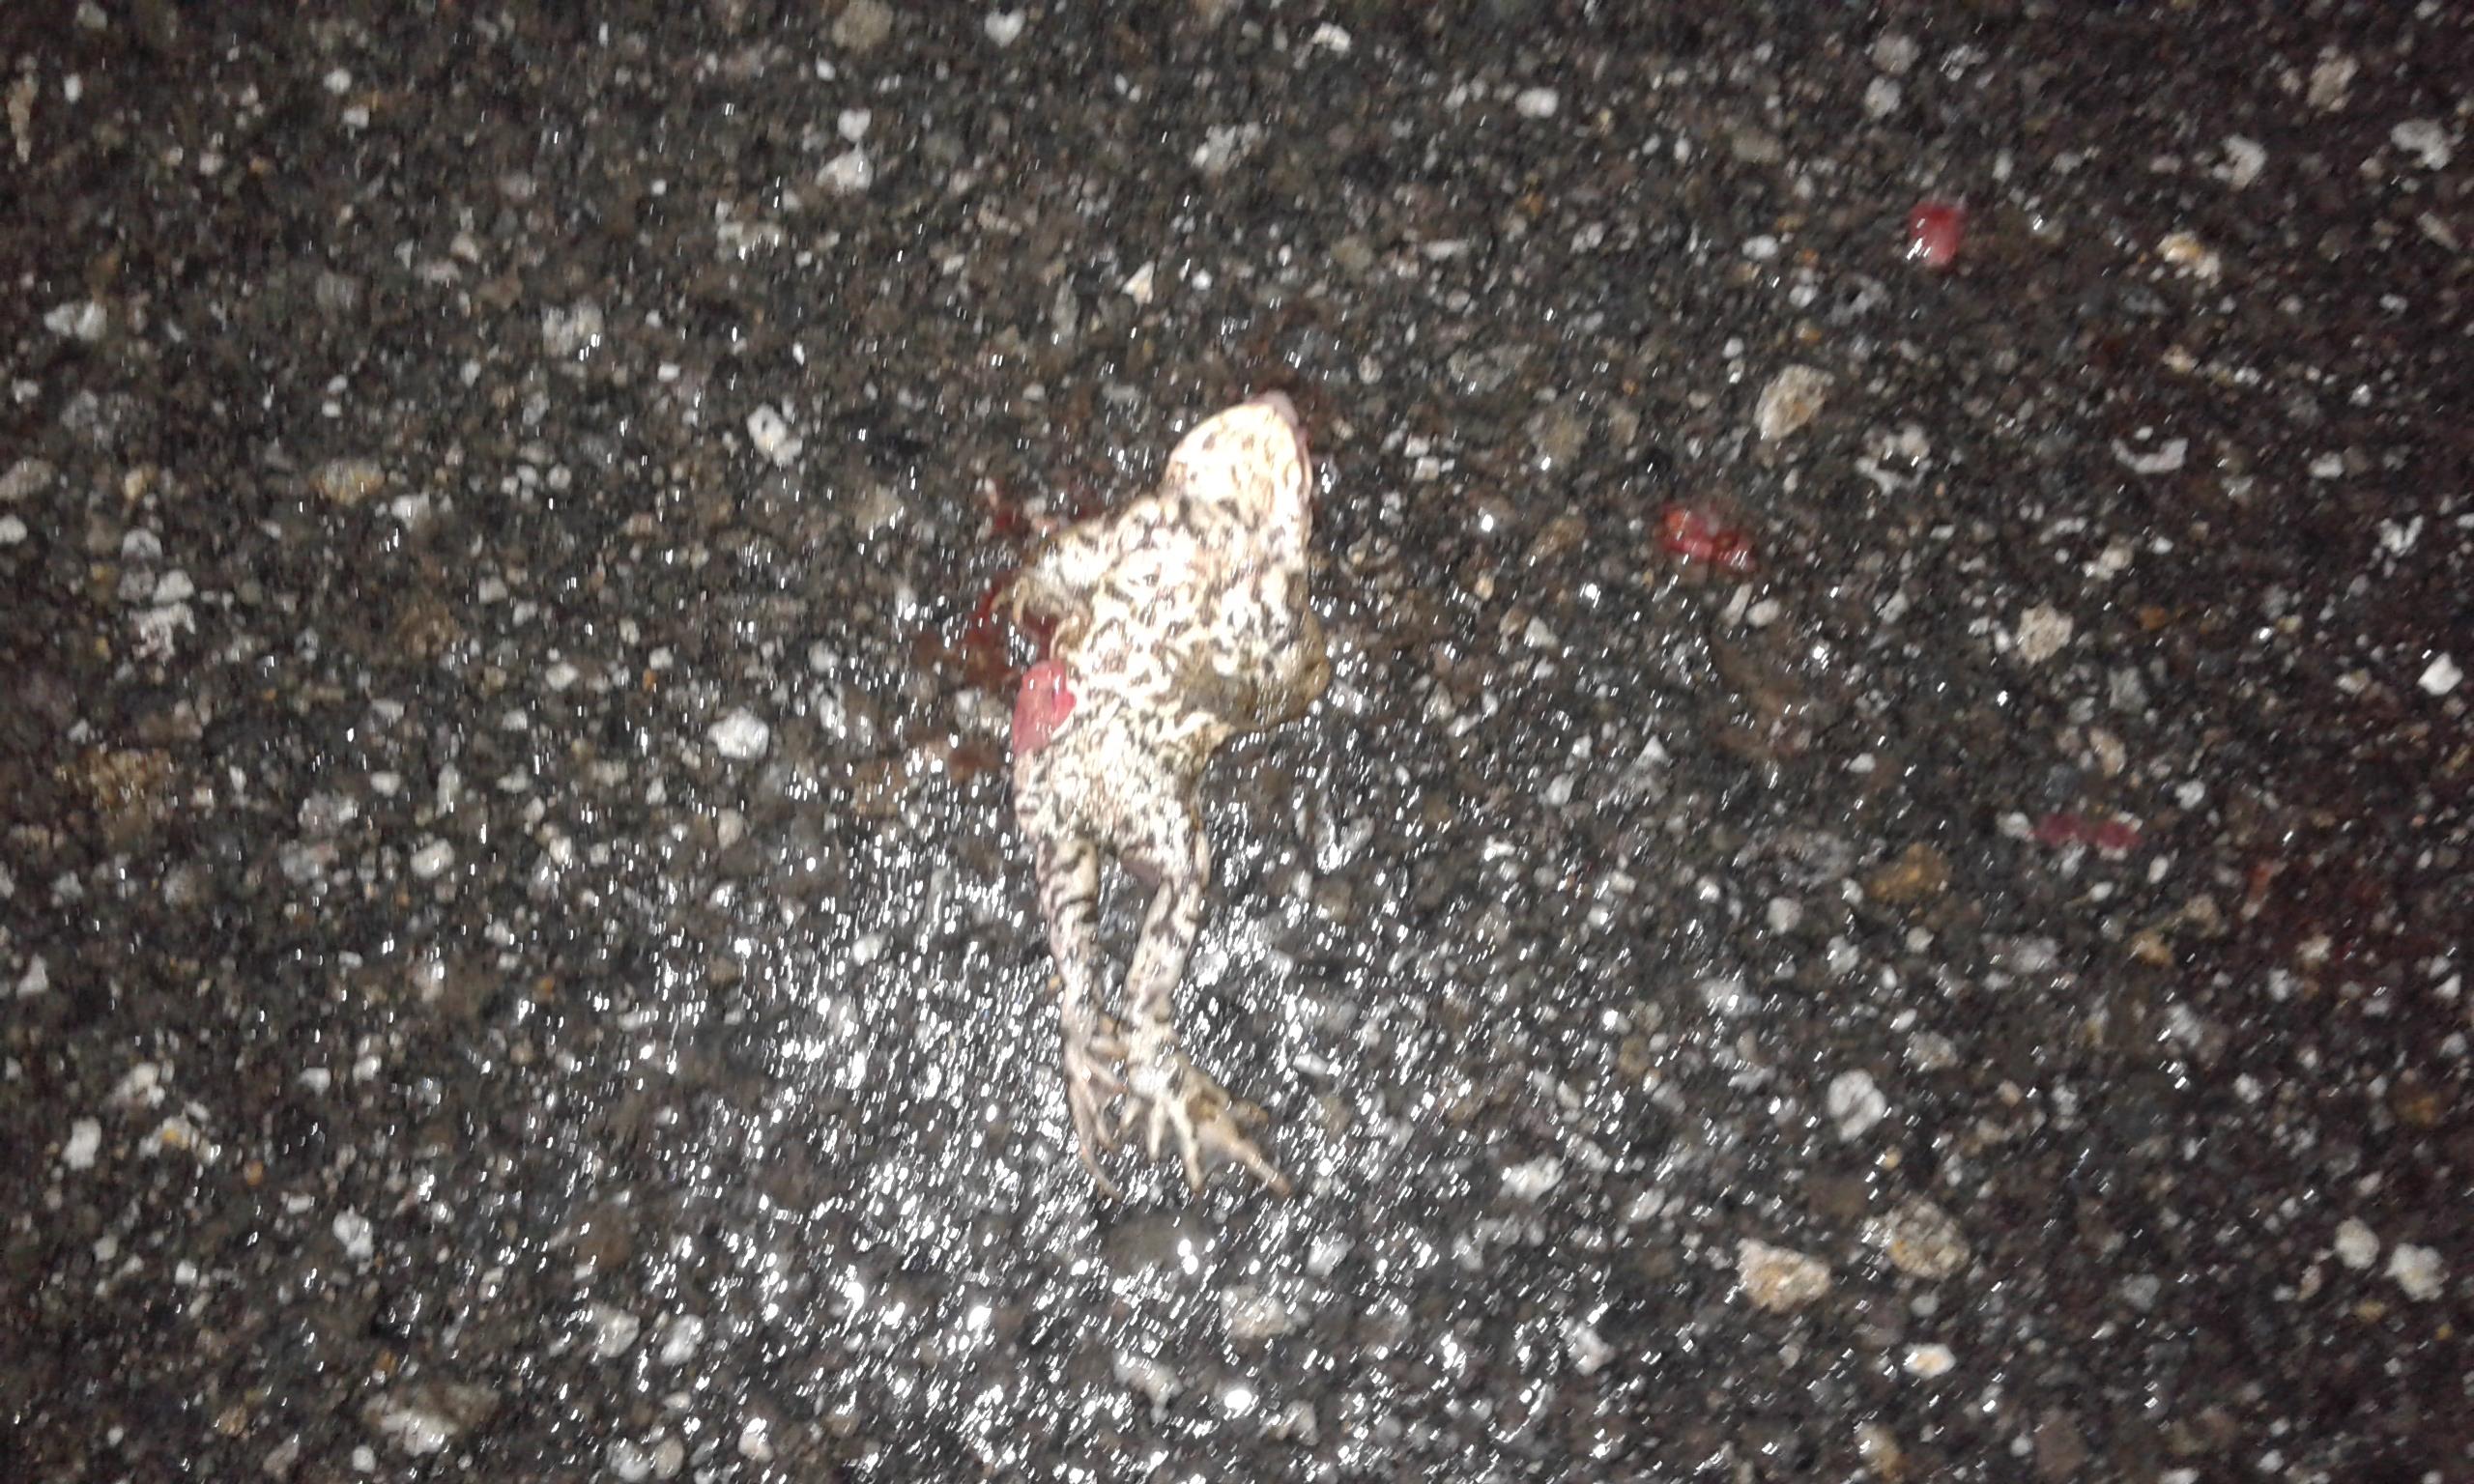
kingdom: Animalia
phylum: Chordata
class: Amphibia
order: Anura
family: Bufonidae
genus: Bufo
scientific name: Bufo bufo
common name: Common toad
